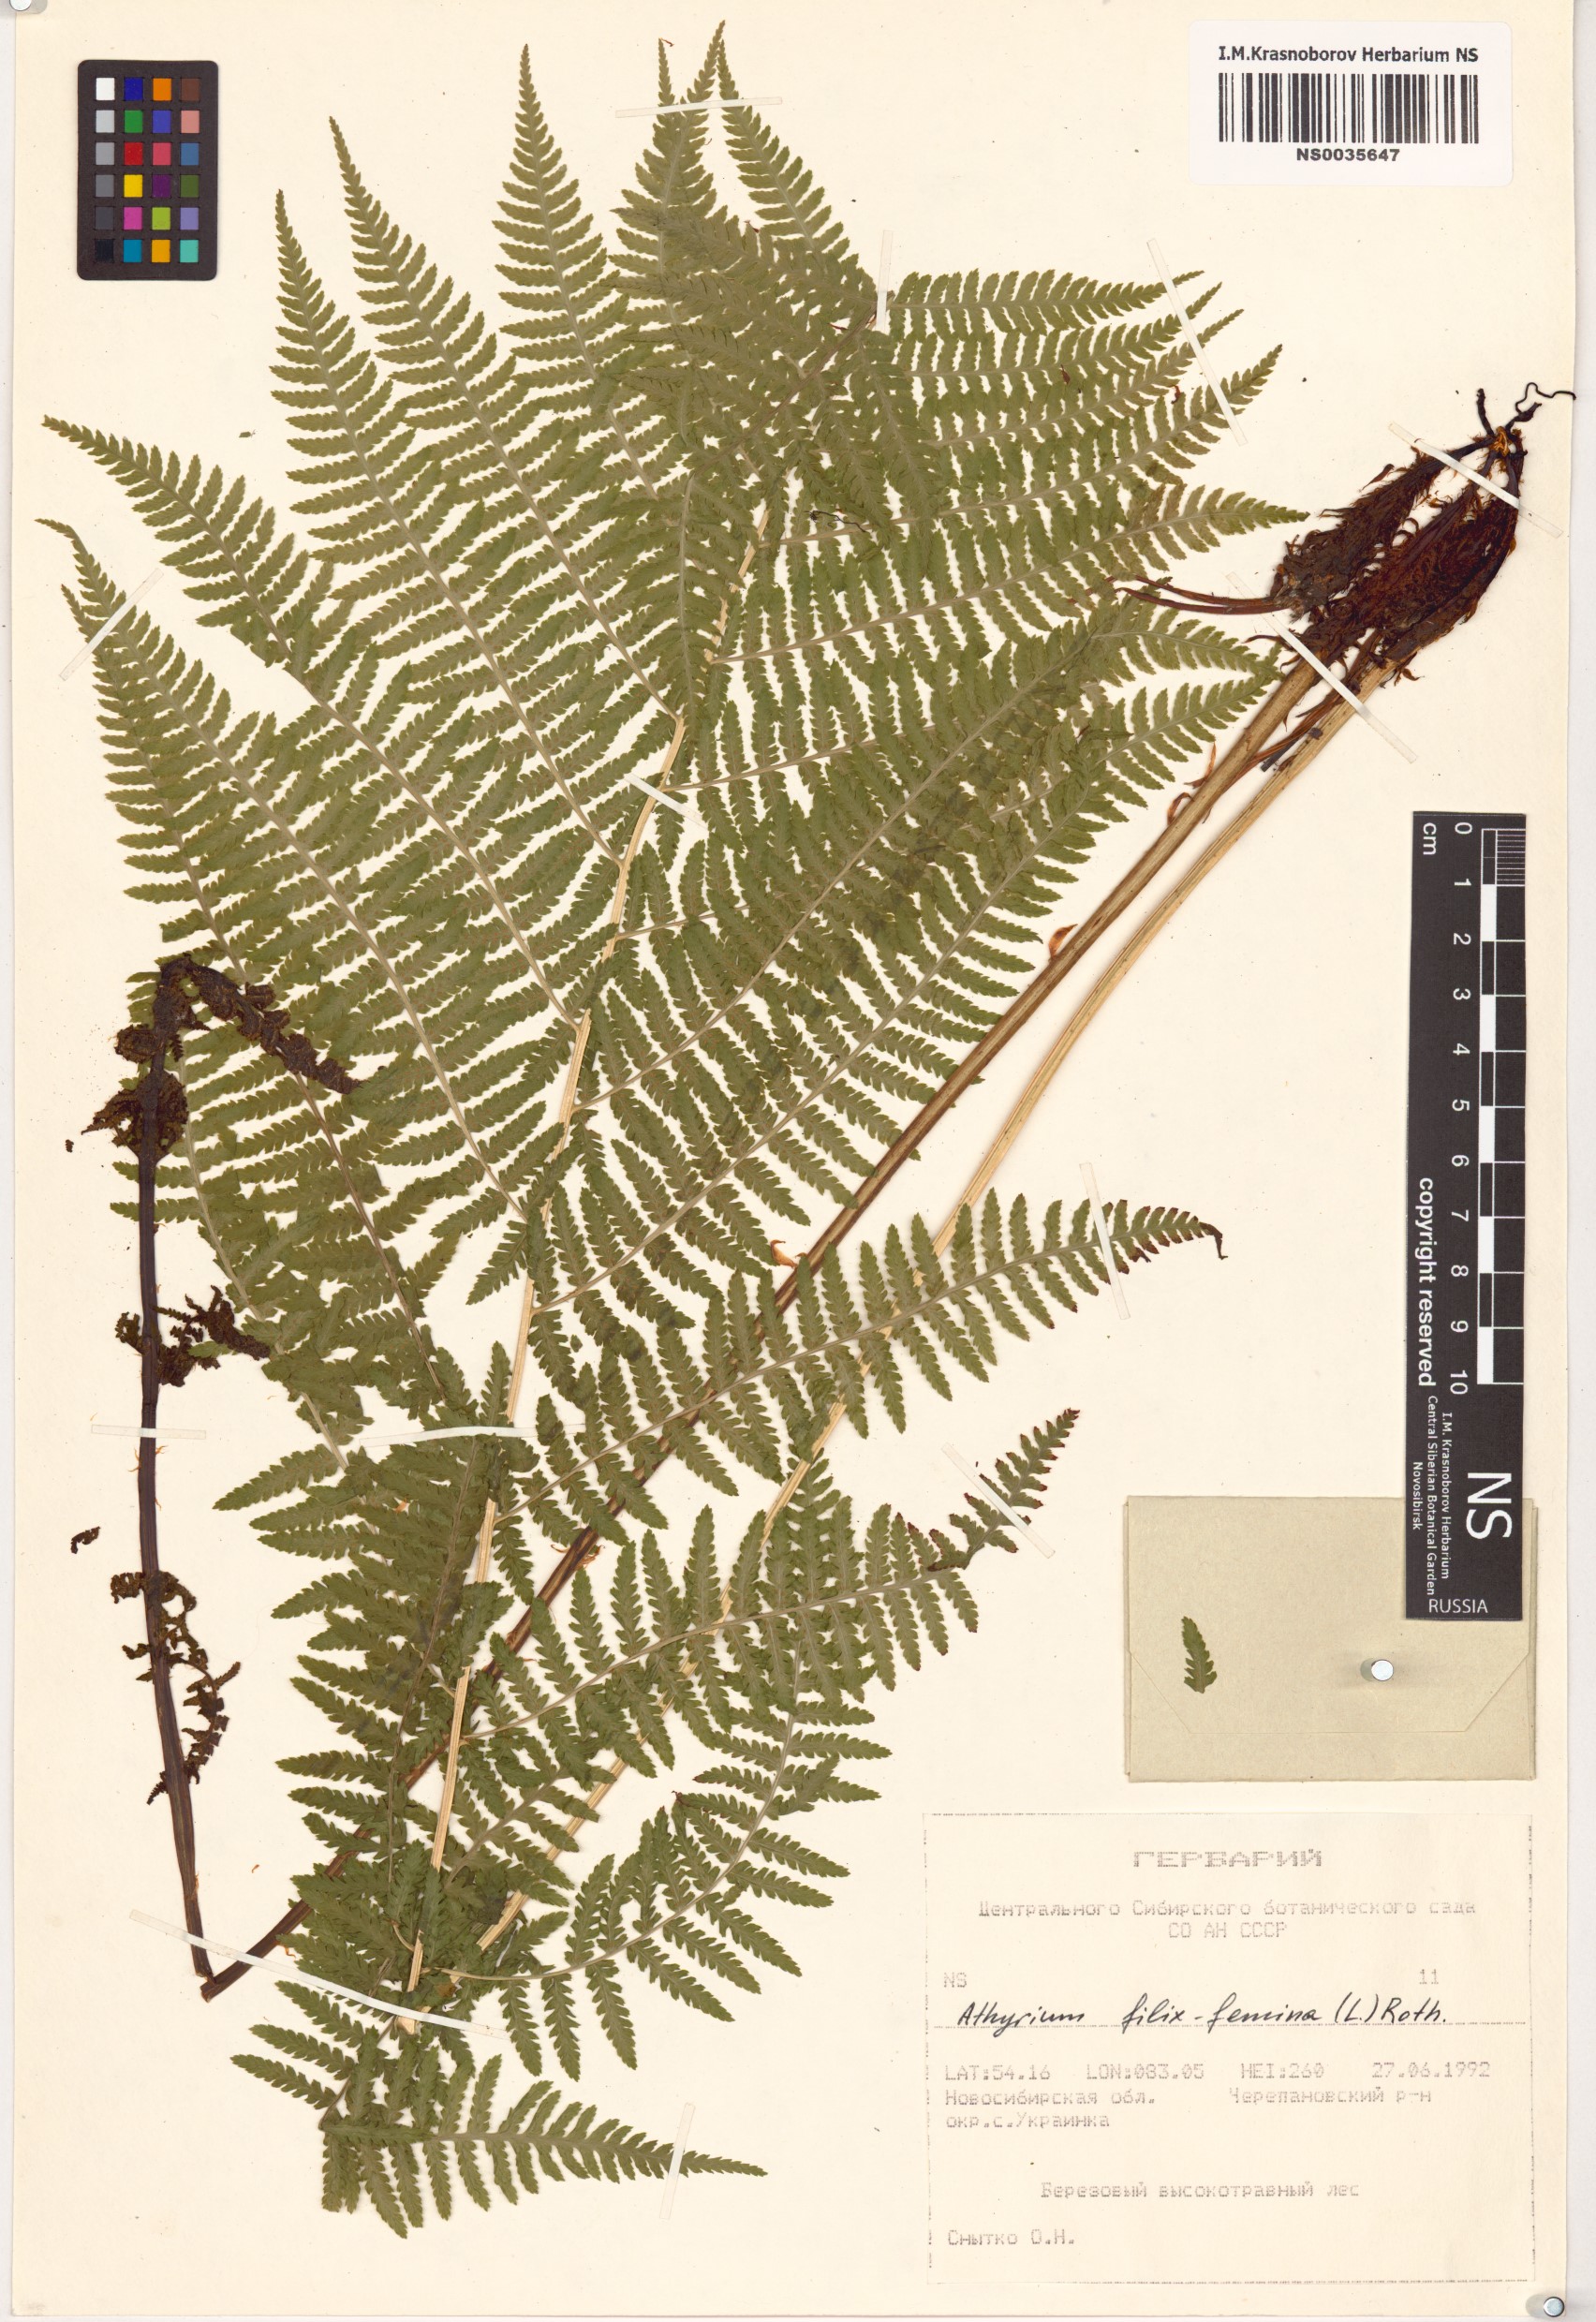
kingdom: Plantae
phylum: Tracheophyta
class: Polypodiopsida
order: Polypodiales
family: Athyriaceae
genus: Athyrium
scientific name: Athyrium filix-femina
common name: Lady fern
